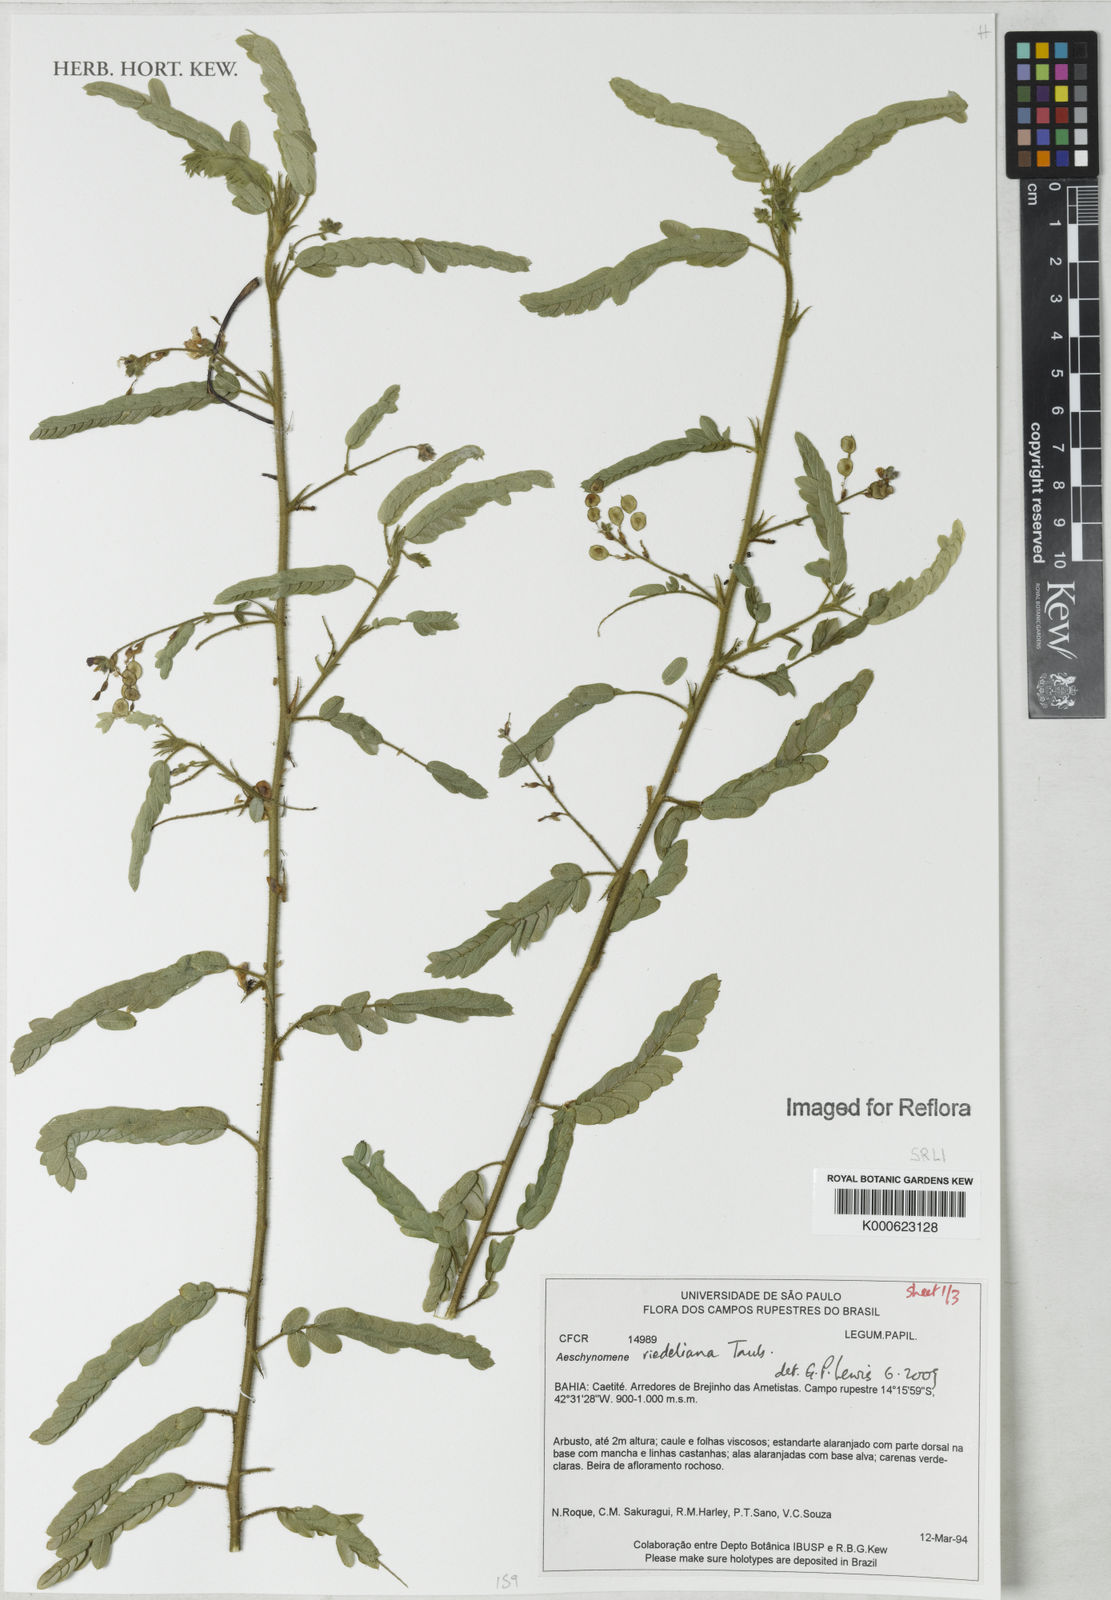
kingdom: Plantae
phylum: Tracheophyta
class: Magnoliopsida
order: Fabales
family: Fabaceae
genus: Ctenodon
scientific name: Ctenodon riedelianus
